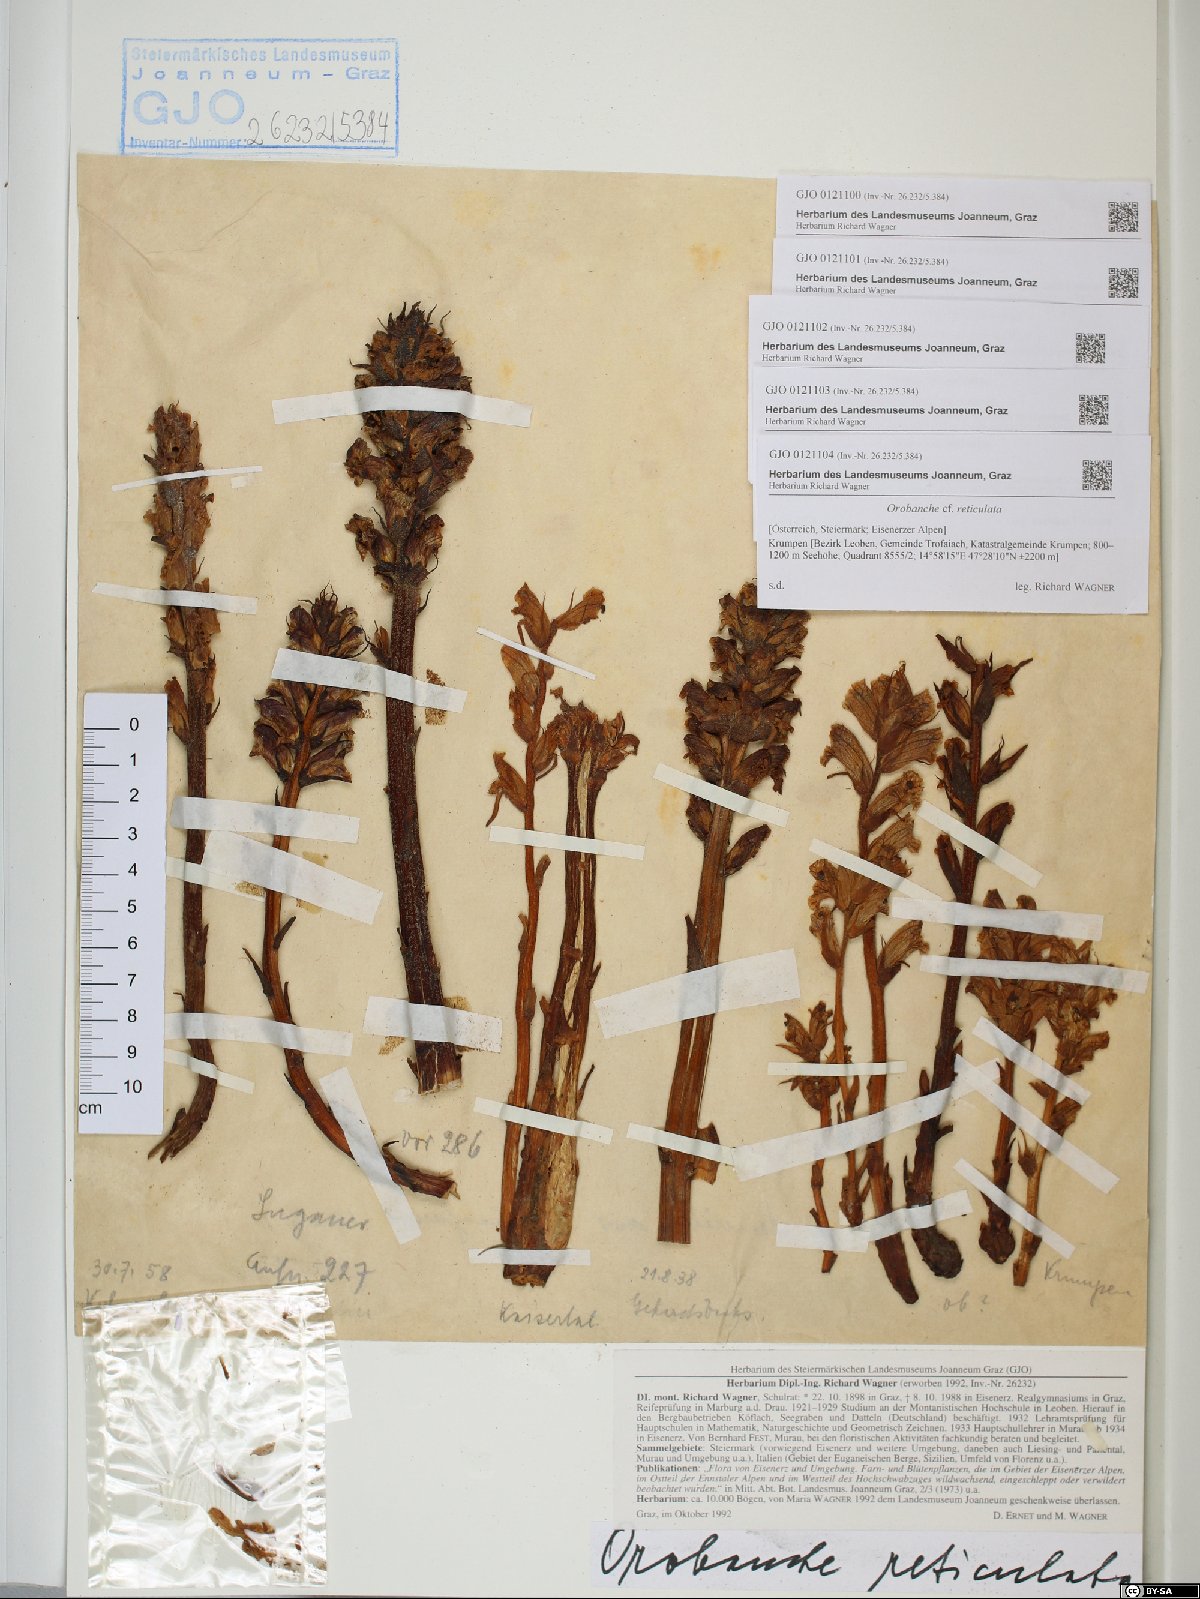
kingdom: Plantae
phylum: Tracheophyta
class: Magnoliopsida
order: Lamiales
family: Orobanchaceae
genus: Orobanche
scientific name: Orobanche reticulata
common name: Thistle broomrape
